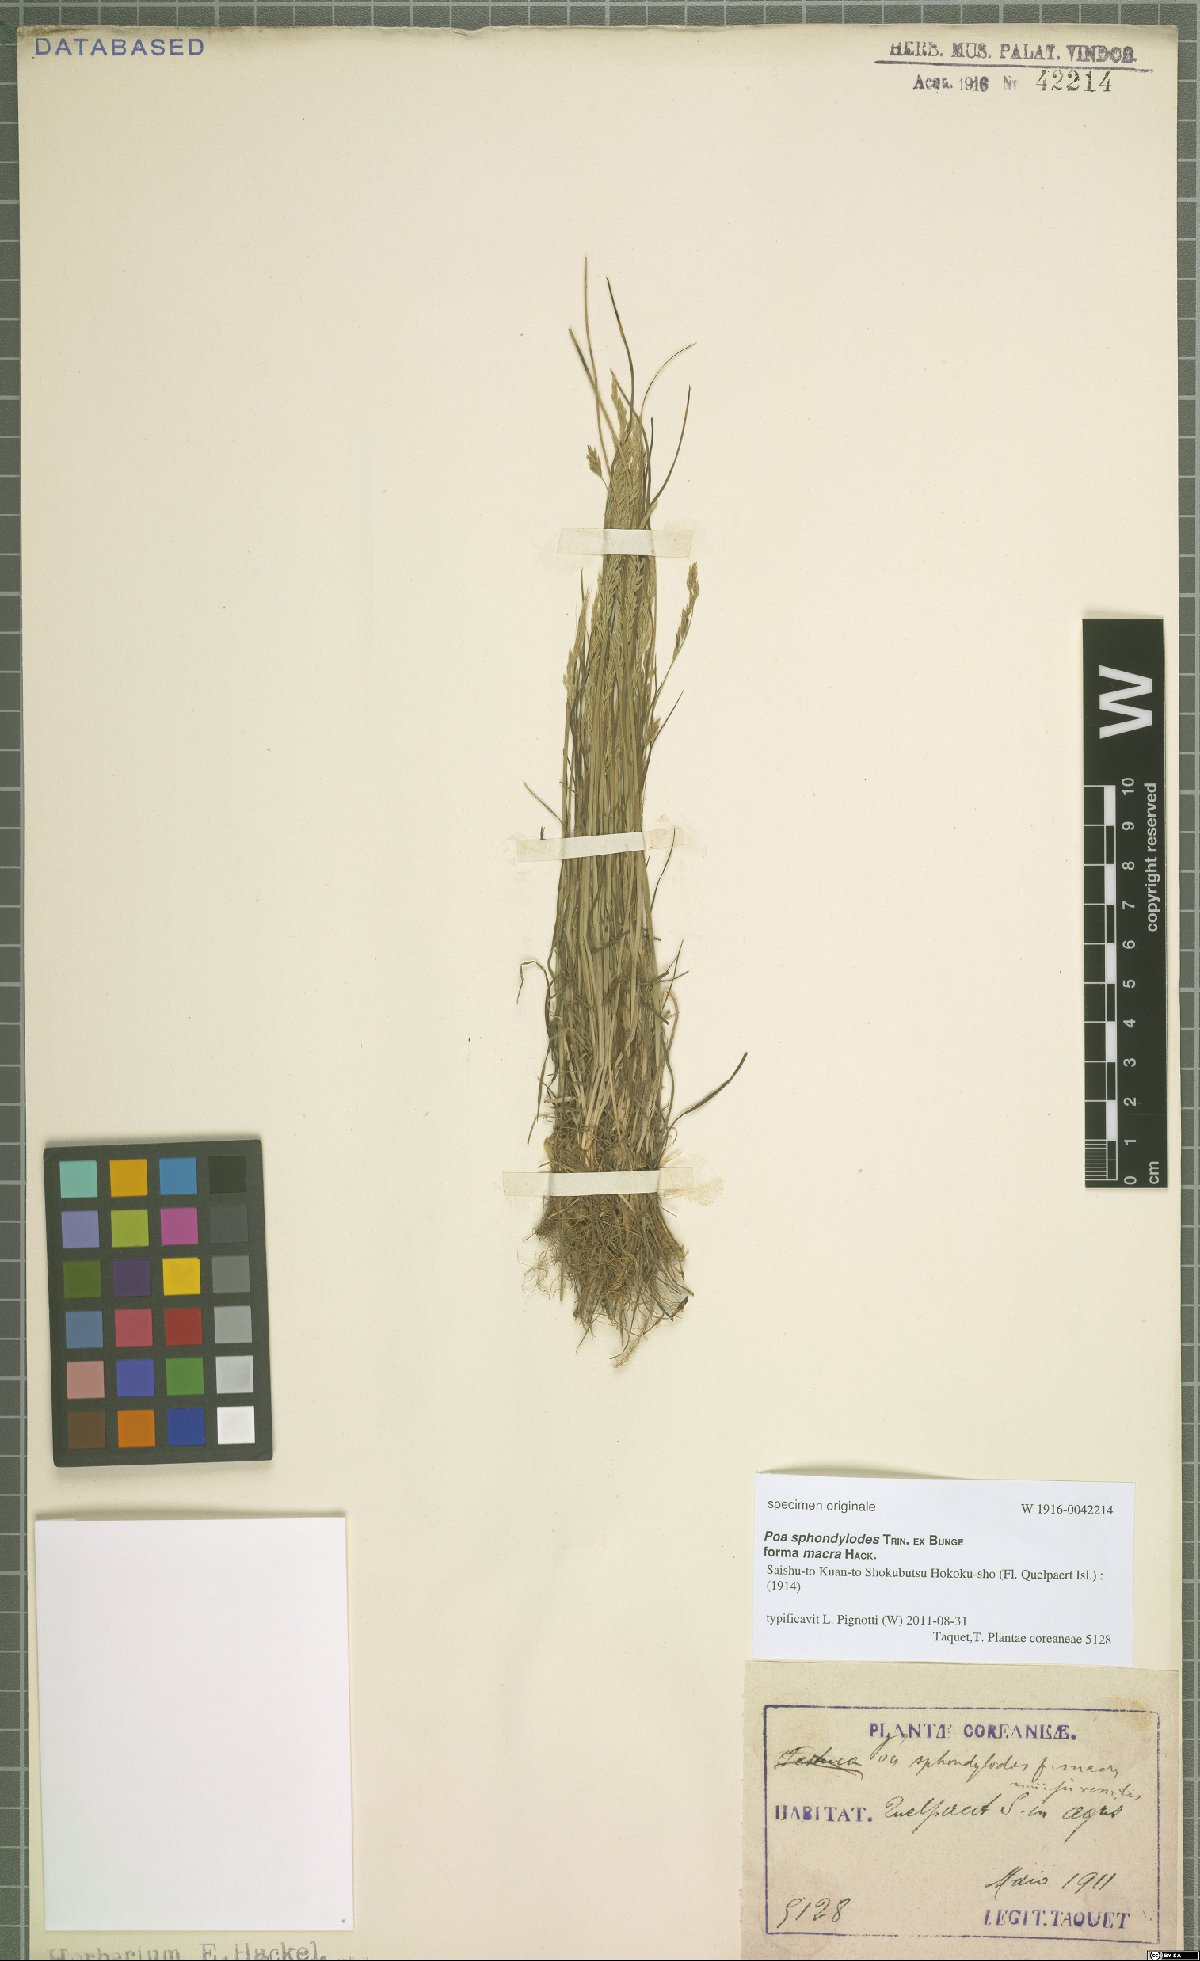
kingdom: Plantae
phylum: Tracheophyta
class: Liliopsida
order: Poales
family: Poaceae
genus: Poa
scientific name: Poa sphondylodes
